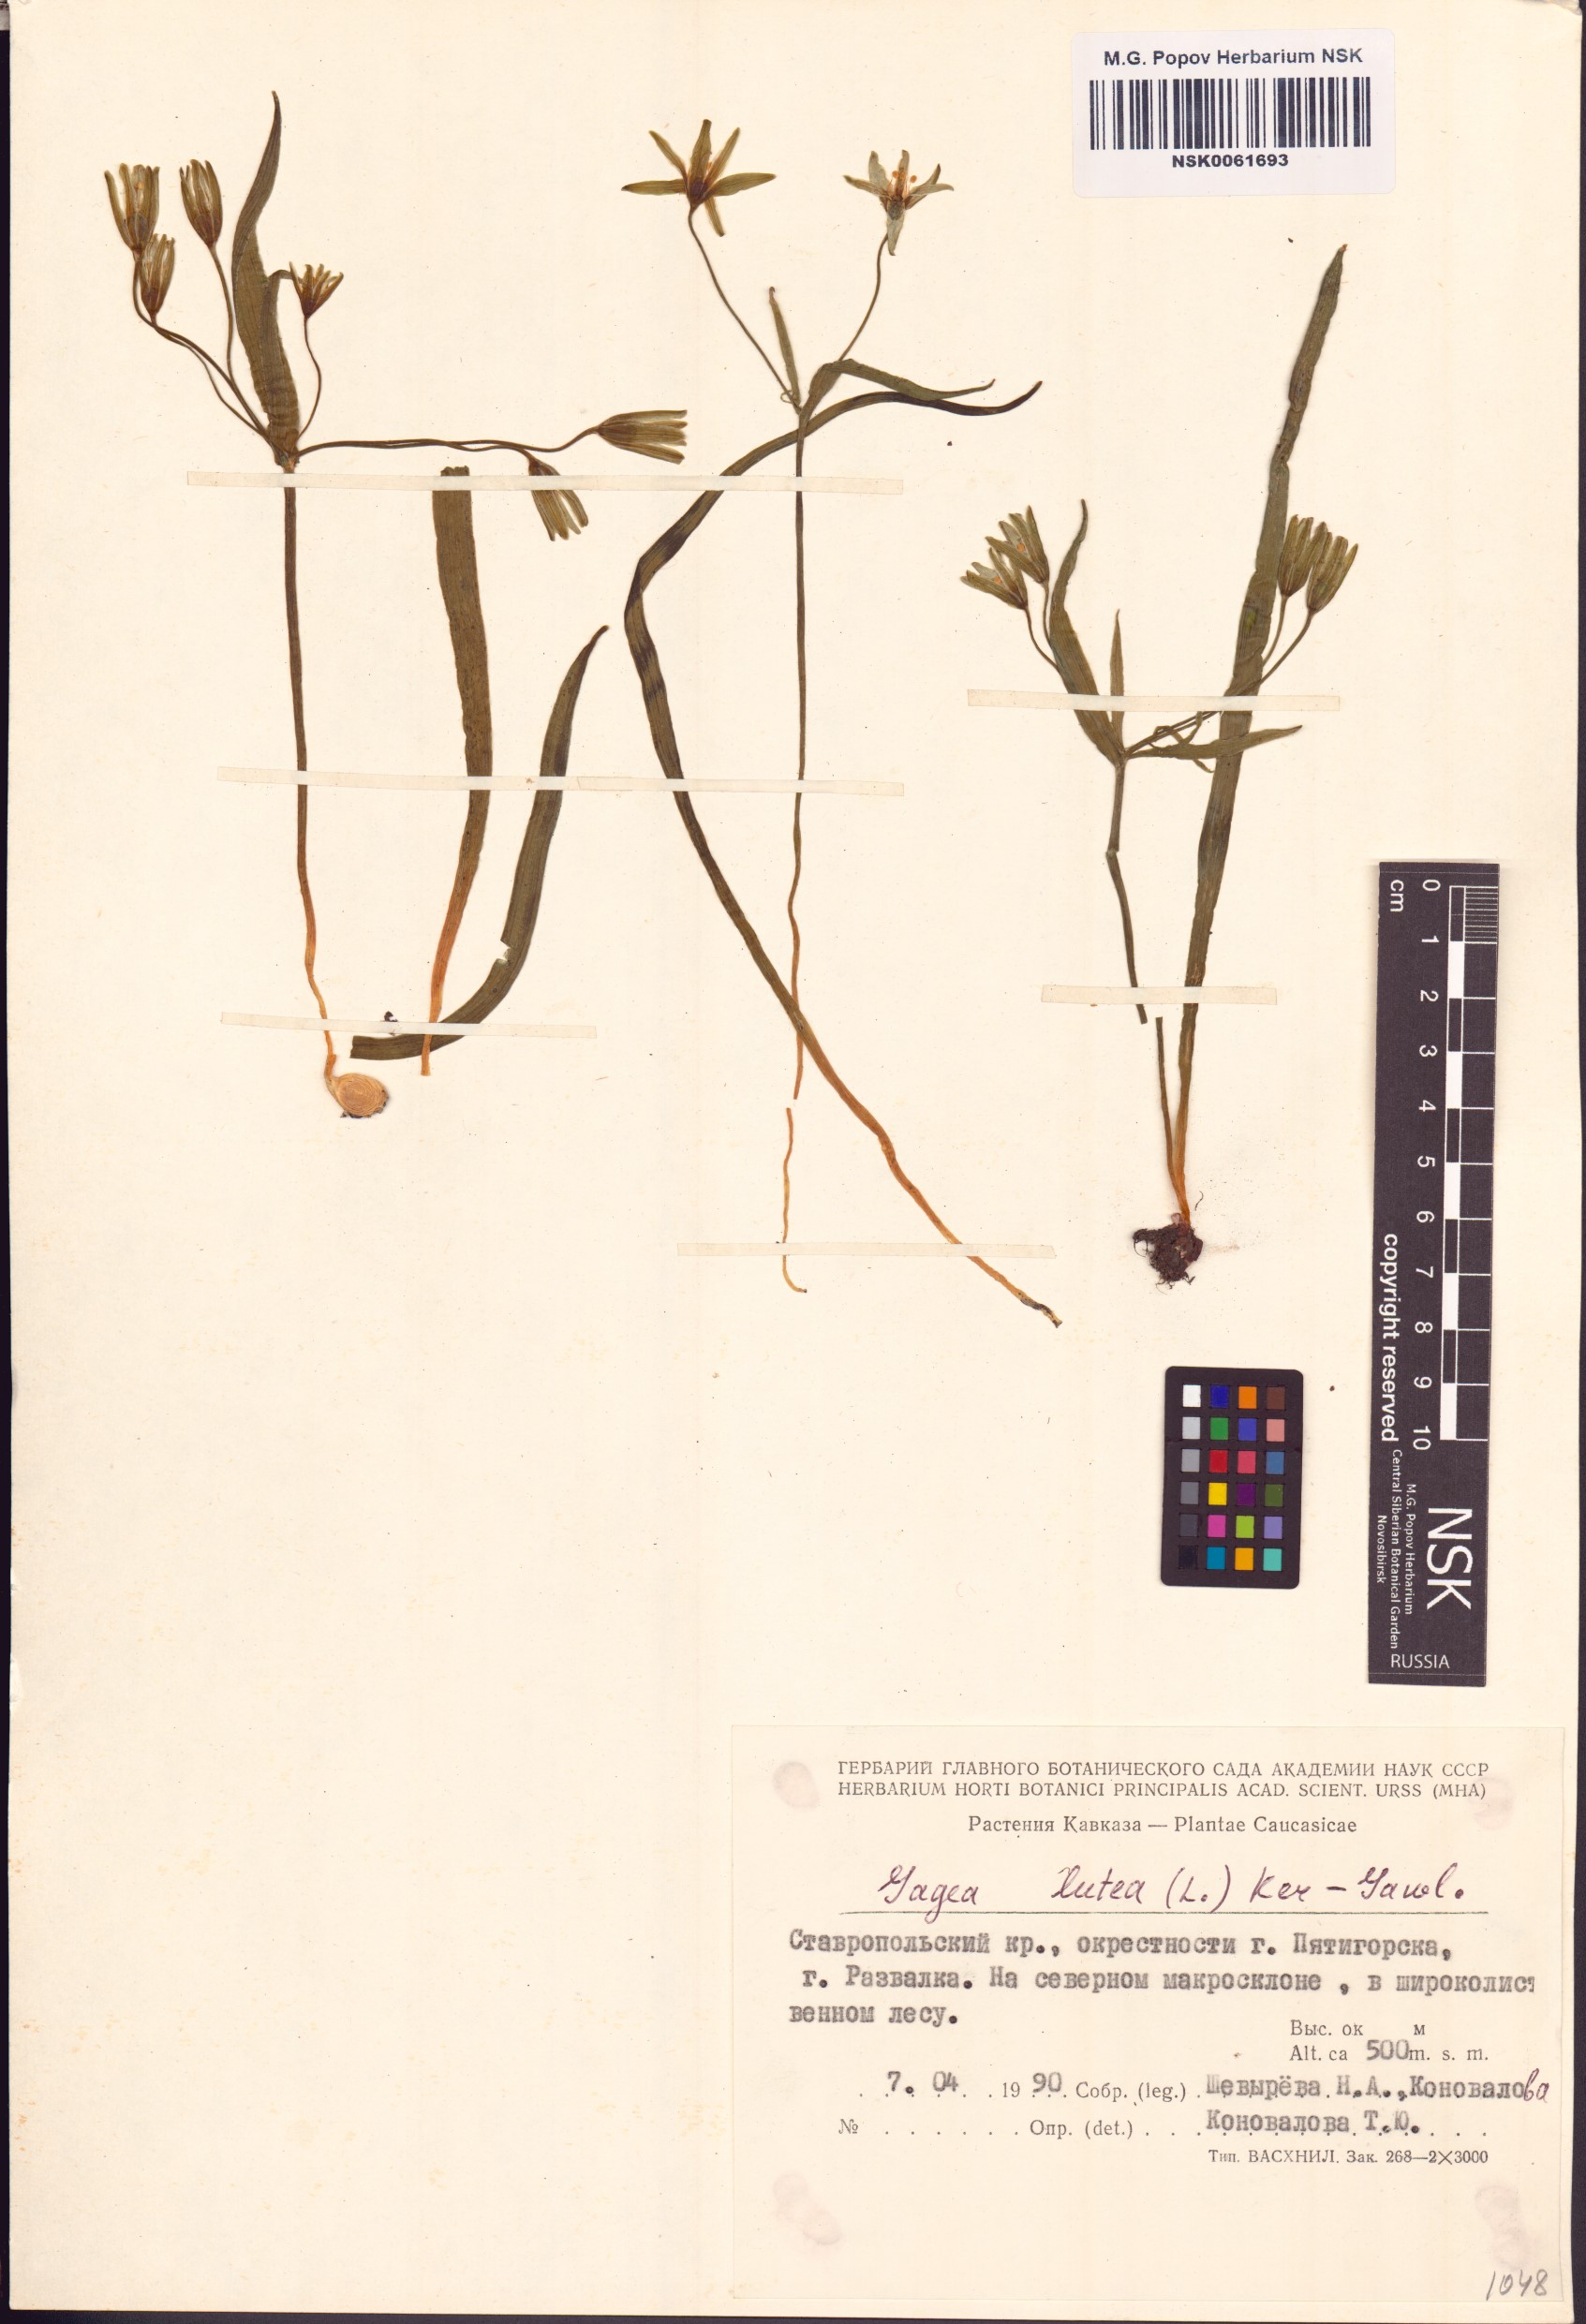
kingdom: Plantae
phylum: Tracheophyta
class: Liliopsida
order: Liliales
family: Liliaceae
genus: Gagea
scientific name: Gagea lutea
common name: Yellow star-of-bethlehem
